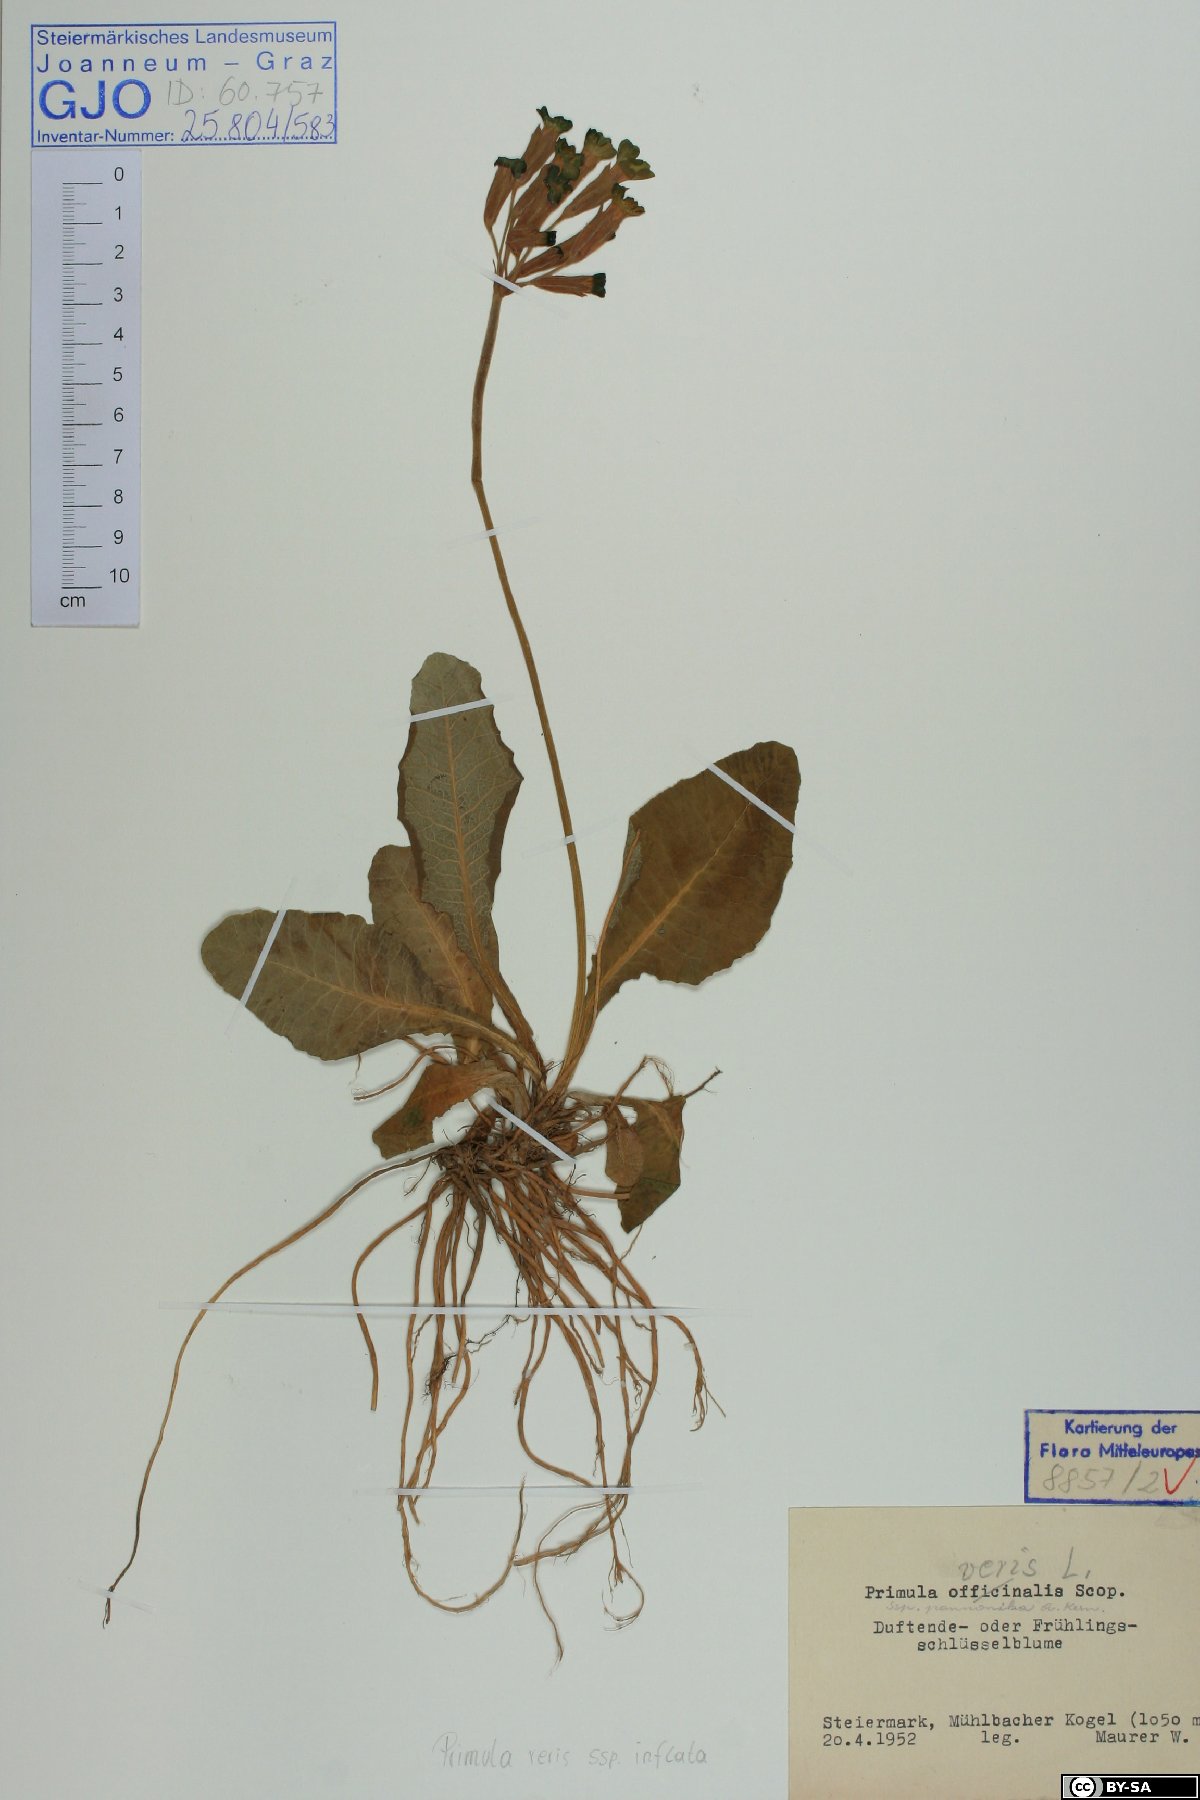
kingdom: Plantae
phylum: Tracheophyta
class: Magnoliopsida
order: Ericales
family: Primulaceae
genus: Primula
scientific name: Primula veris
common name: Cowslip
